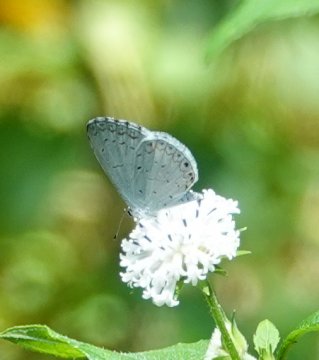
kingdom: Animalia
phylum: Arthropoda
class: Insecta
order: Lepidoptera
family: Lycaenidae
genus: Cyaniris
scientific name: Cyaniris neglecta
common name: Summer Azure
